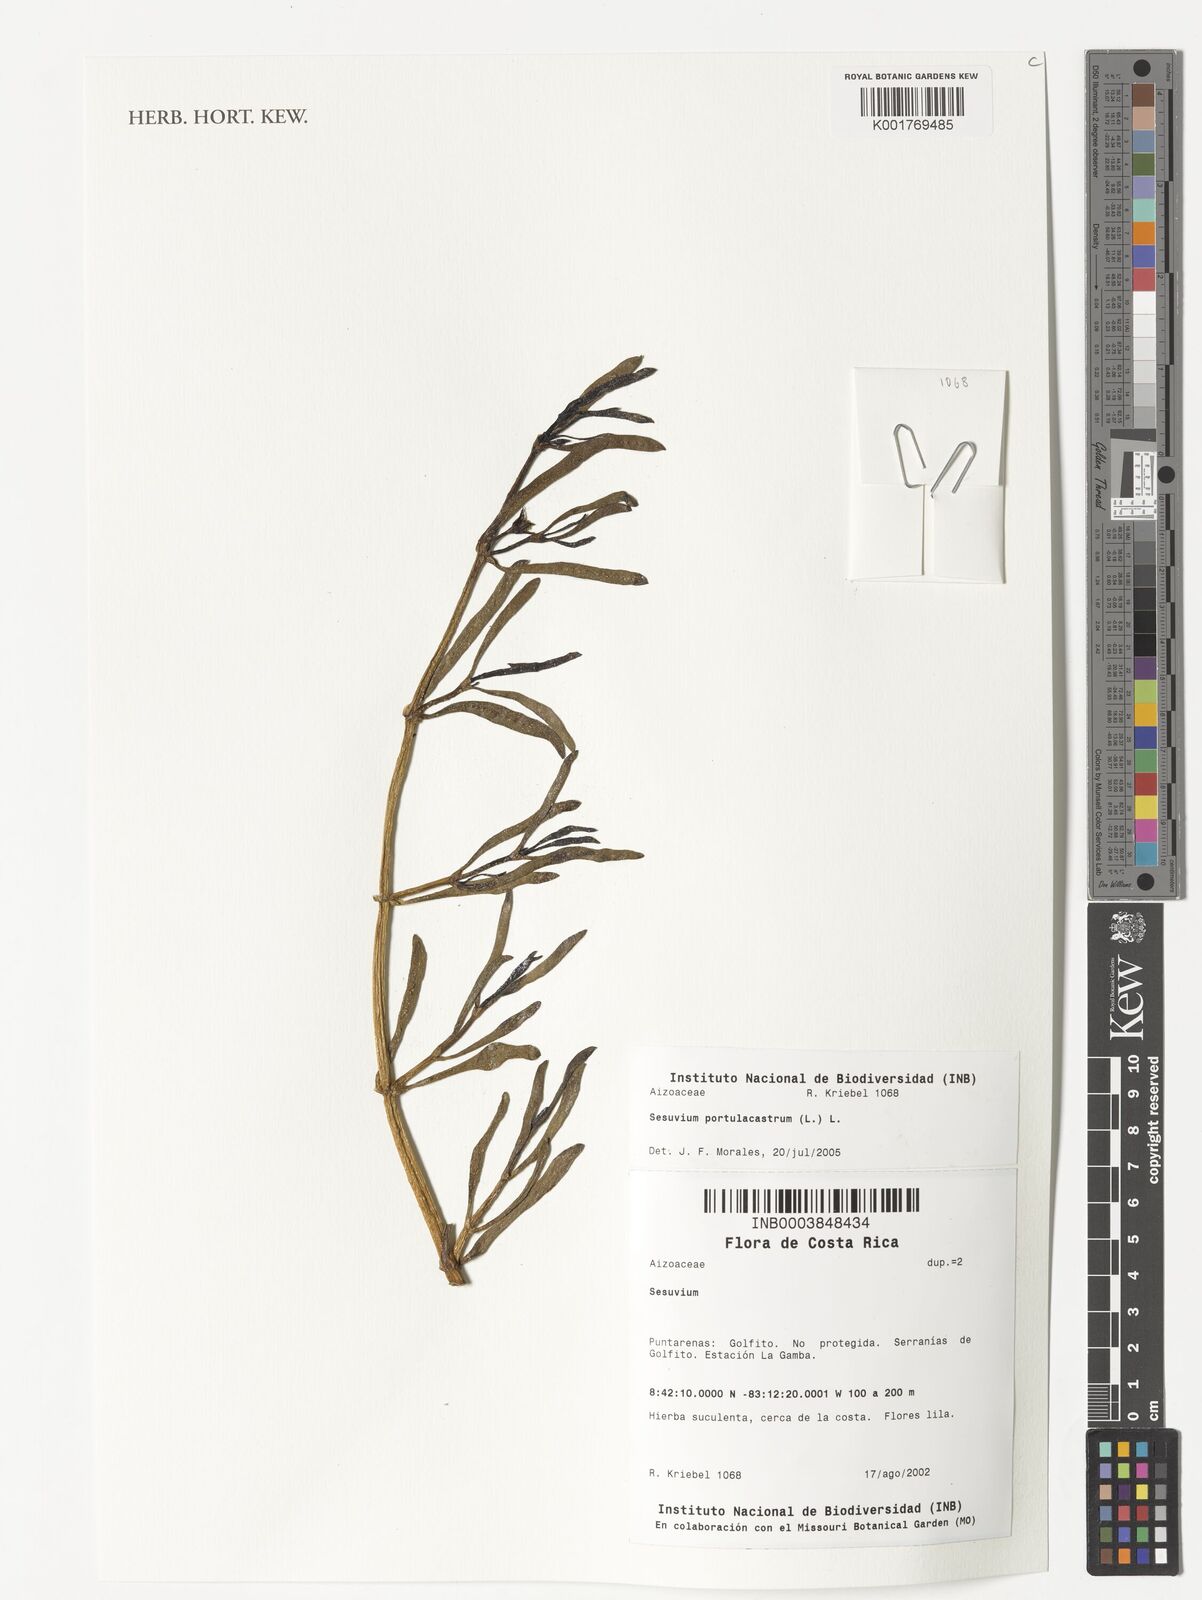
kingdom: Plantae
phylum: Tracheophyta
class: Magnoliopsida
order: Caryophyllales
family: Aizoaceae
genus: Sesuvium
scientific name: Sesuvium portulacastrum
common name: Sea-purslane
